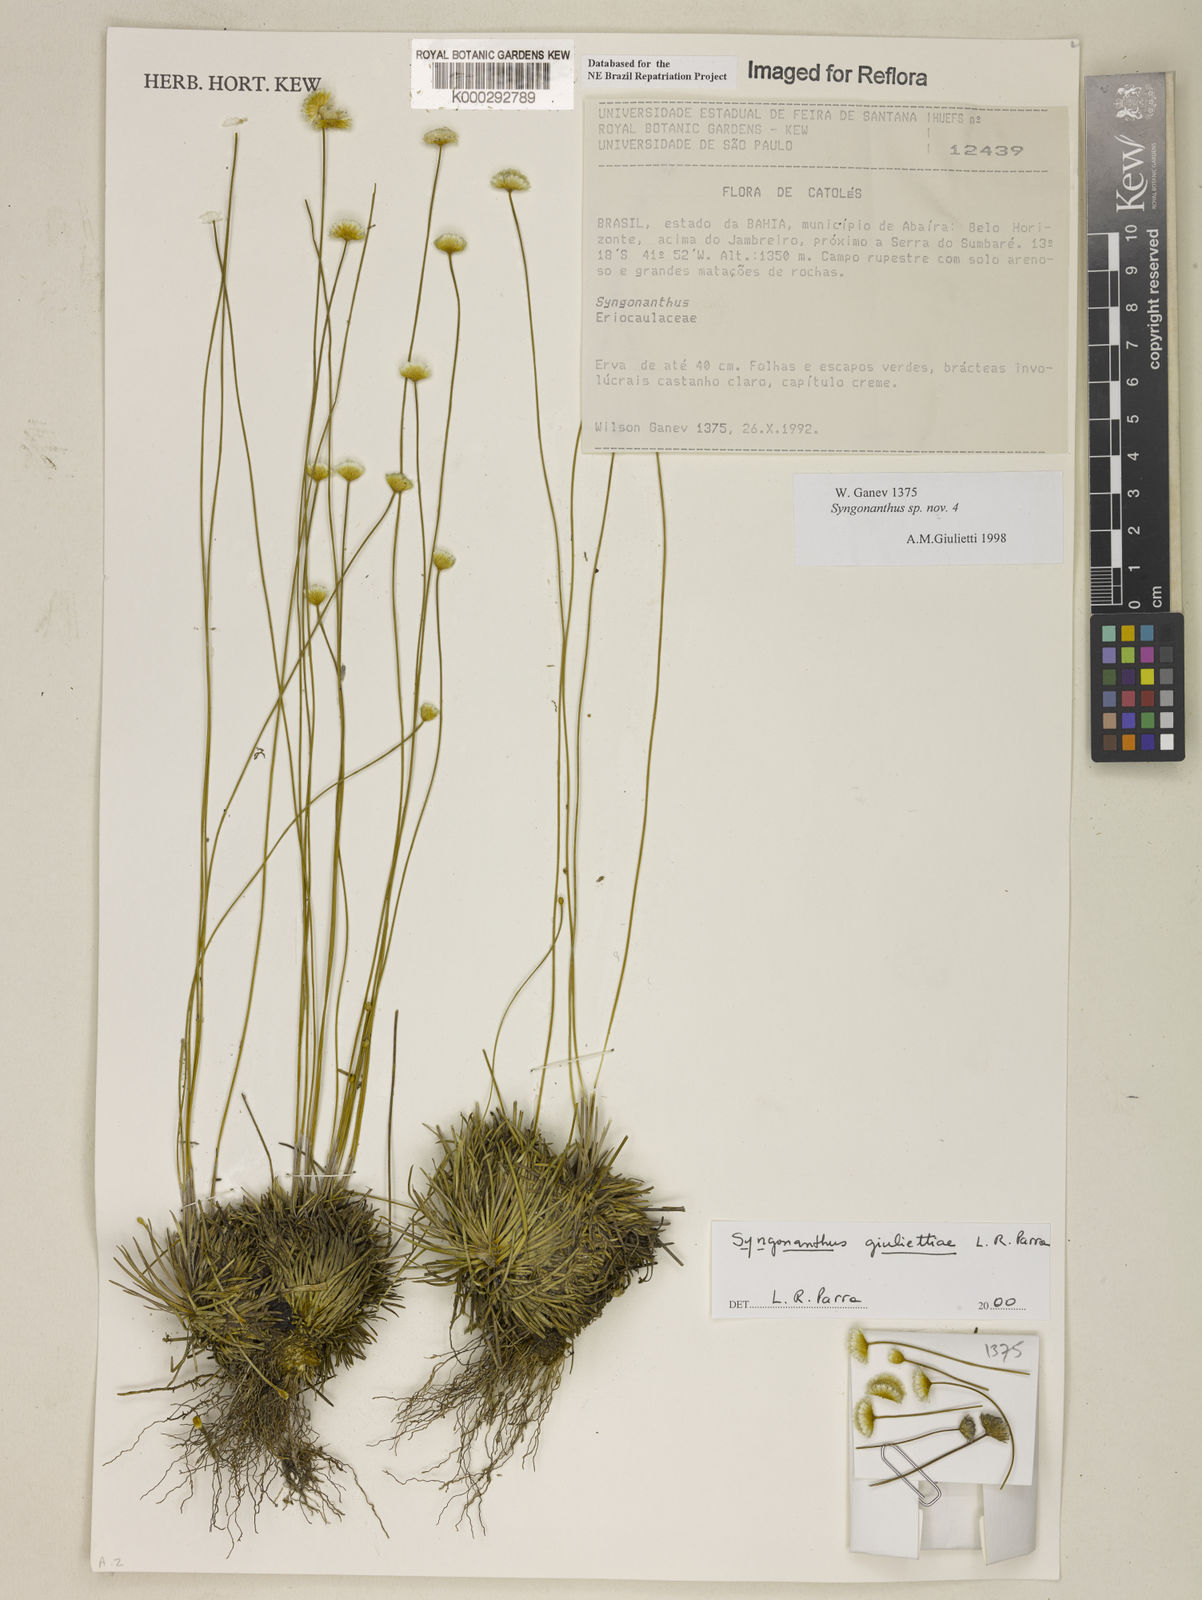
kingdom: Plantae
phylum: Tracheophyta
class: Liliopsida
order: Poales
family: Eriocaulaceae
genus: Syngonanthus
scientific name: Syngonanthus
